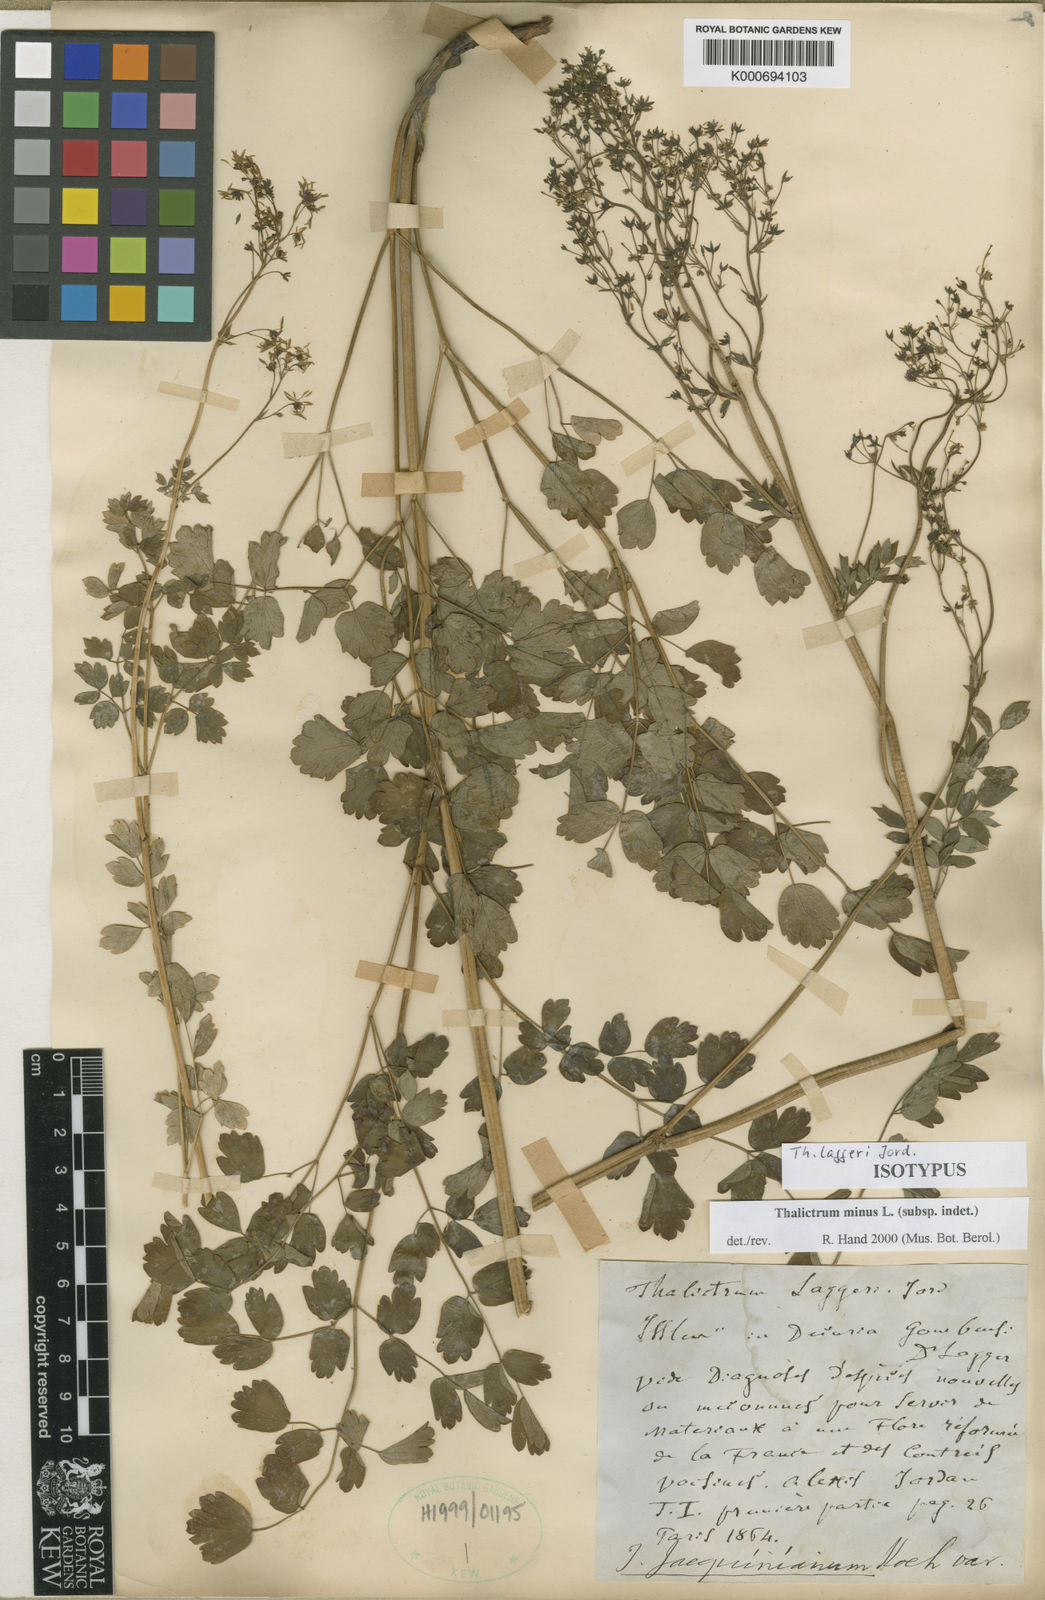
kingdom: Plantae
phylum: Tracheophyta
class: Magnoliopsida
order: Ranunculales
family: Ranunculaceae
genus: Thalictrum
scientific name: Thalictrum minus
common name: Lesser meadow-rue
